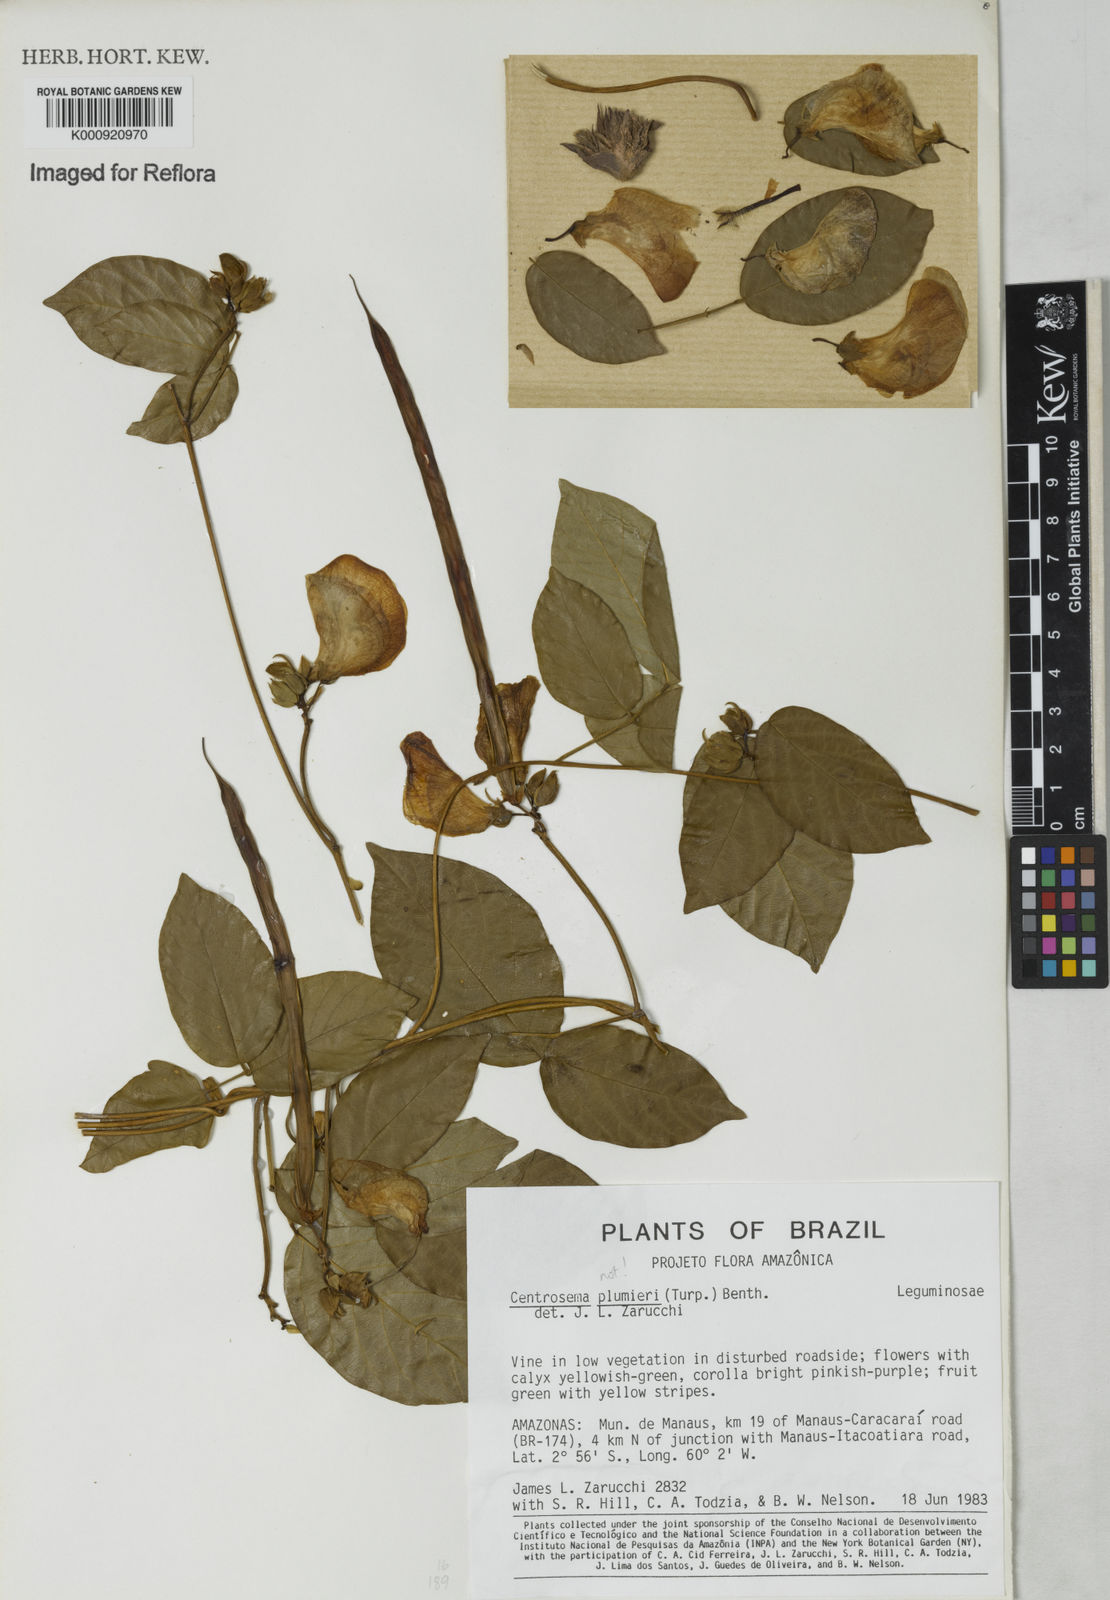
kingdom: Plantae
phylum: Tracheophyta
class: Magnoliopsida
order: Fabales
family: Fabaceae
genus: Centrosema
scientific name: Centrosema
